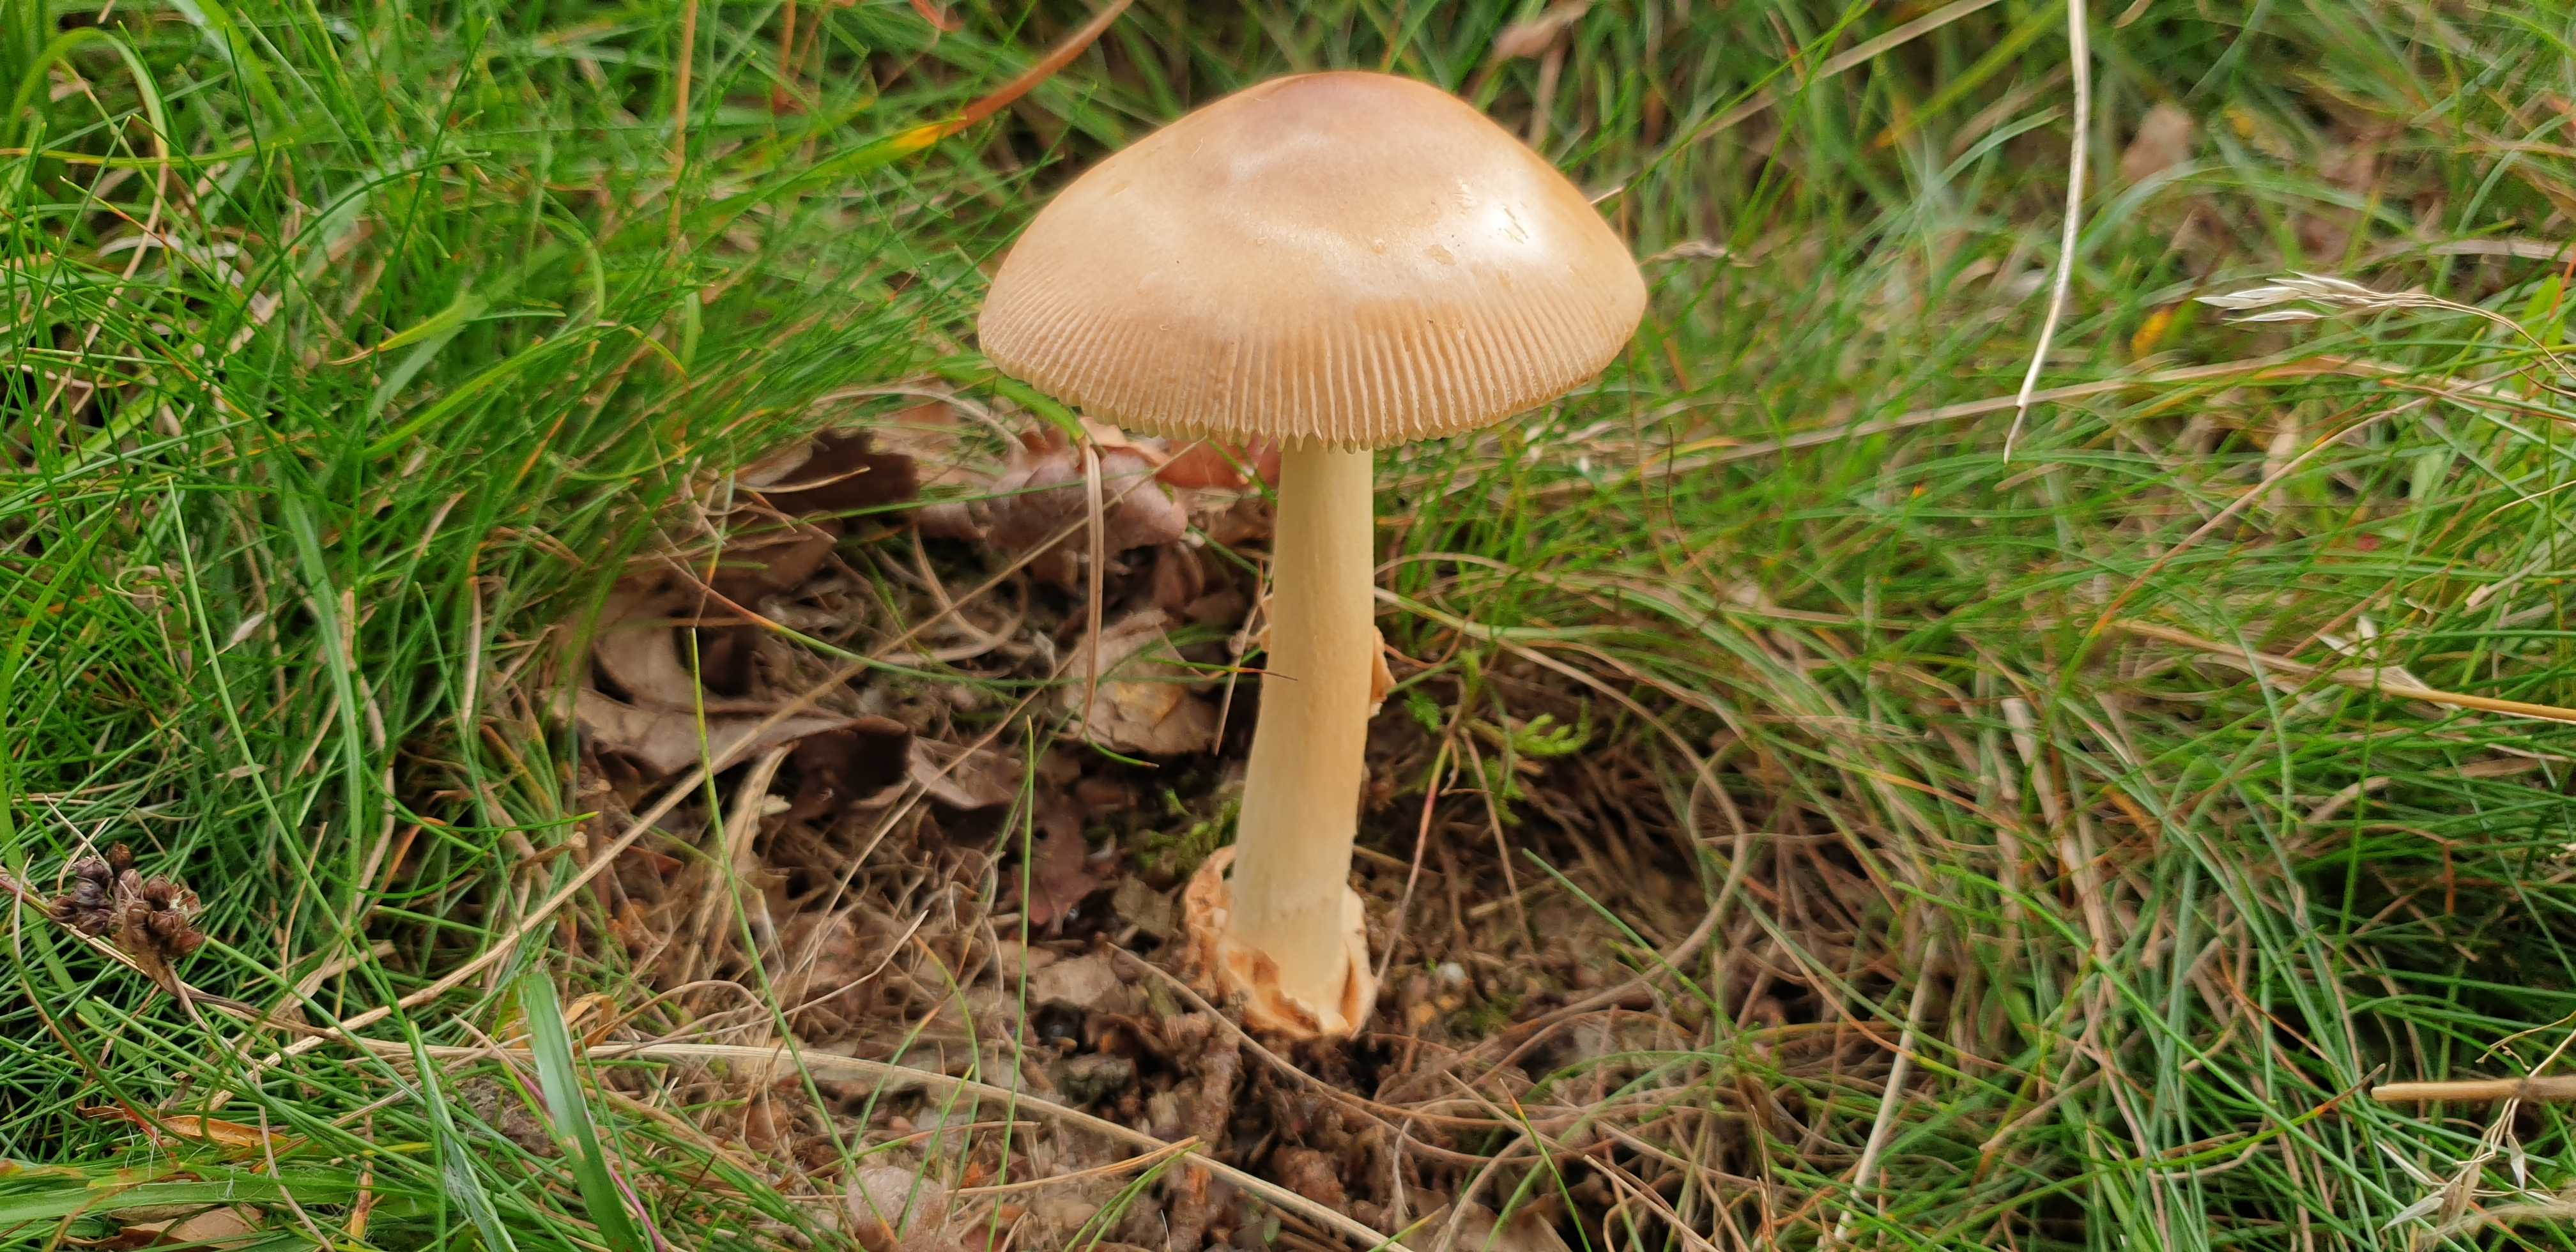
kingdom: Fungi
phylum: Basidiomycota
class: Agaricomycetes
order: Agaricales
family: Amanitaceae
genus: Amanita
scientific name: Amanita fulva
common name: brun kam-fluesvamp
